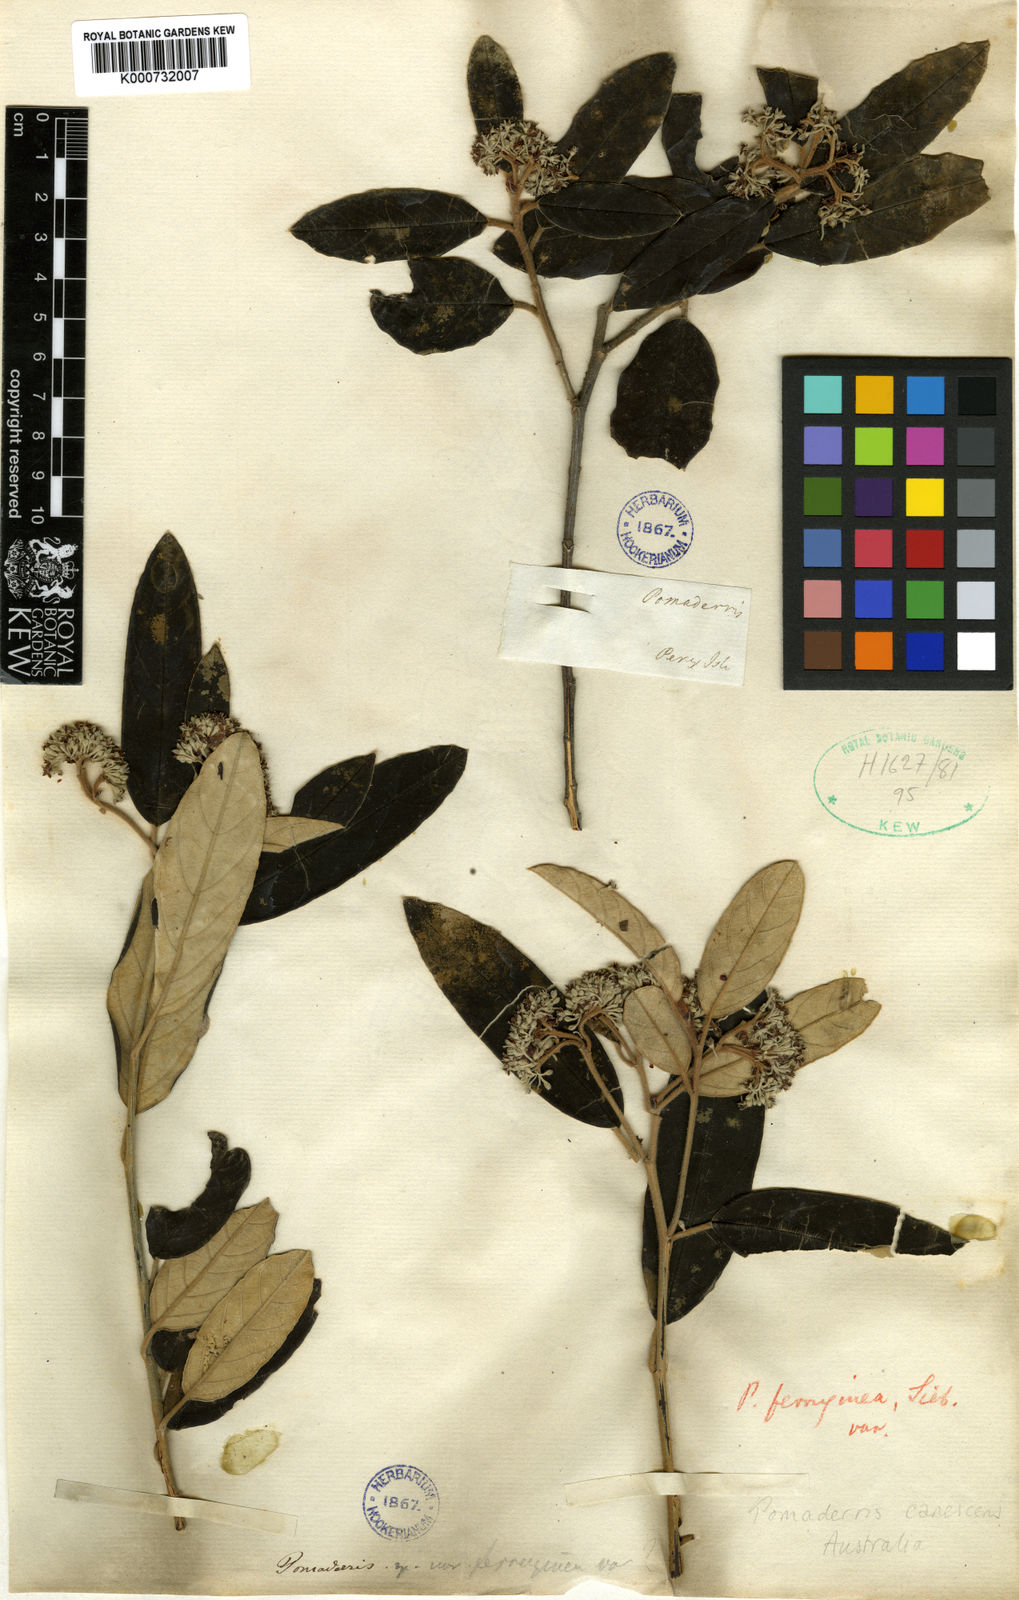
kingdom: Plantae
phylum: Tracheophyta
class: Magnoliopsida
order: Rosales
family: Rhamnaceae
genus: Pomaderris
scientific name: Pomaderris
